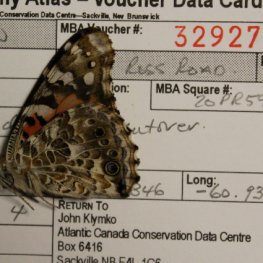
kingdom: Animalia
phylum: Arthropoda
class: Insecta
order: Lepidoptera
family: Nymphalidae
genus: Vanessa
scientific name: Vanessa cardui
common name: Painted Lady
